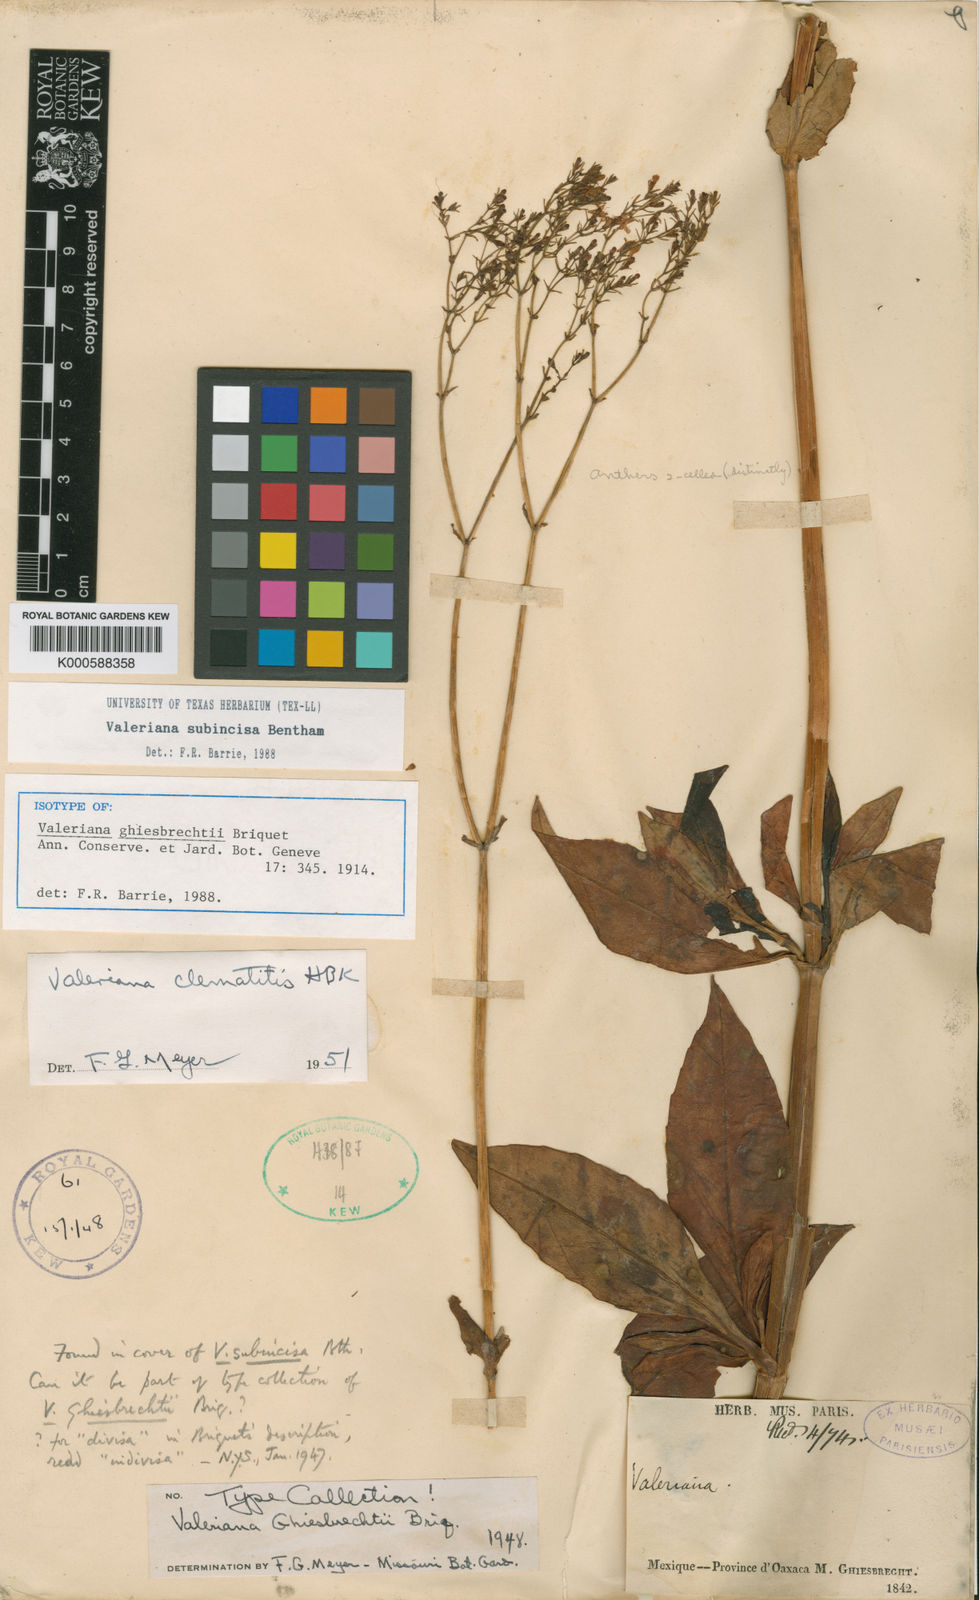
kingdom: Plantae
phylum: Tracheophyta
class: Magnoliopsida
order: Dipsacales
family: Caprifoliaceae
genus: Valeriana
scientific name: Valeriana subincisa
